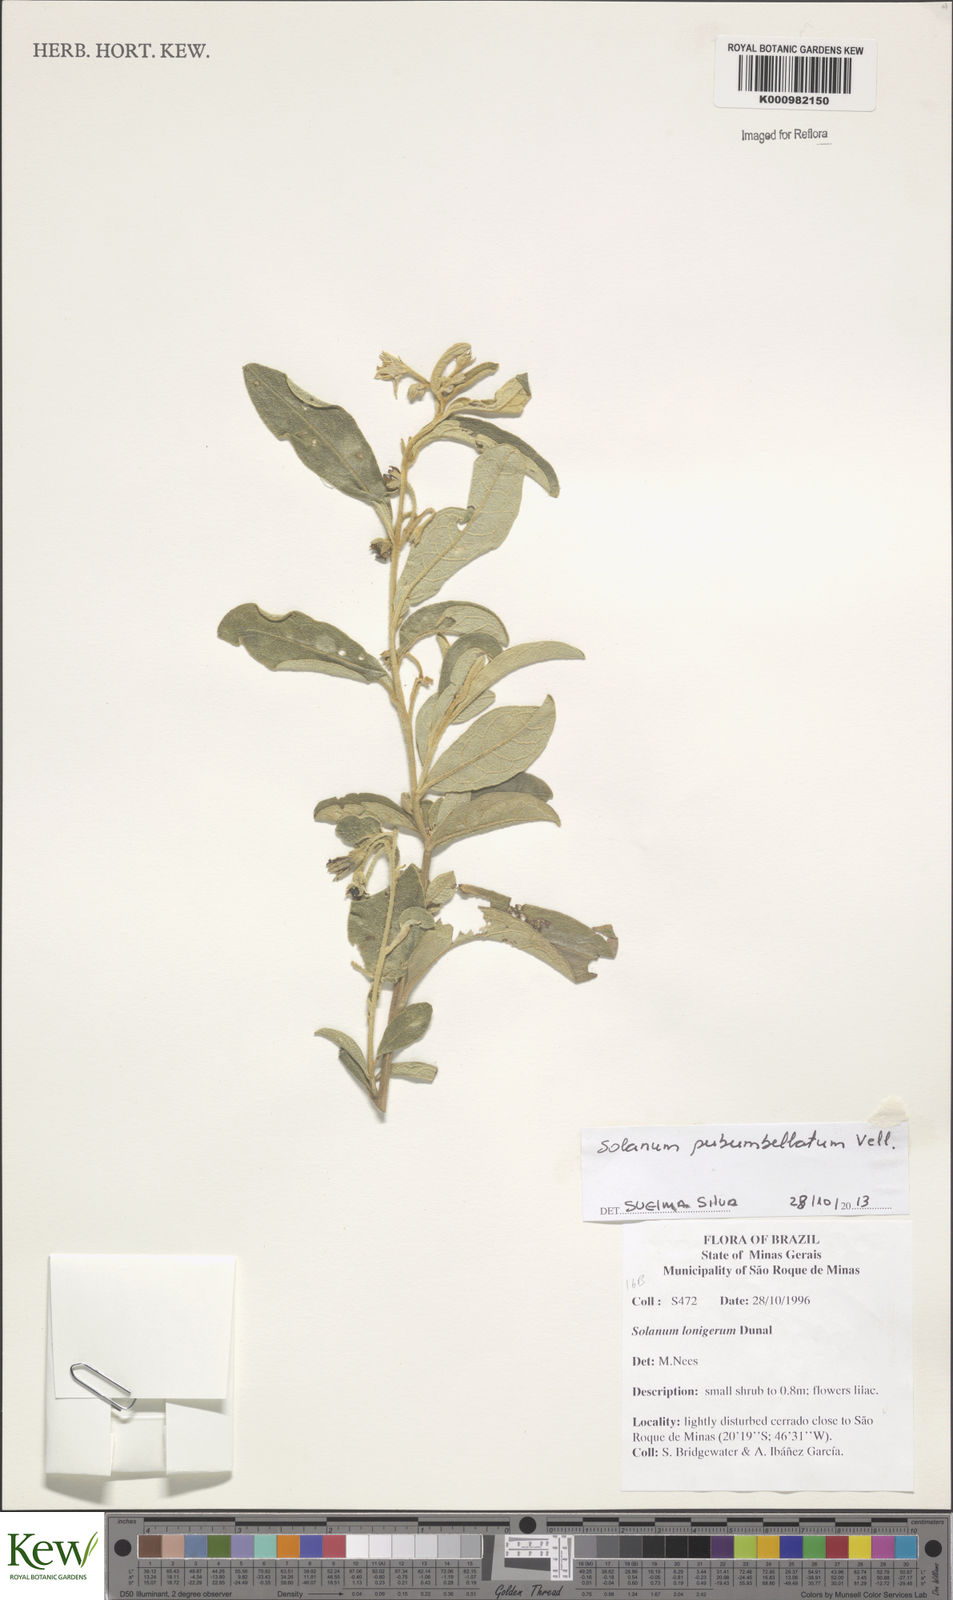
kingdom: Plantae
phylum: Tracheophyta
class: Magnoliopsida
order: Solanales
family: Solanaceae
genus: Solanum
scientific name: Solanum subumbellatum
